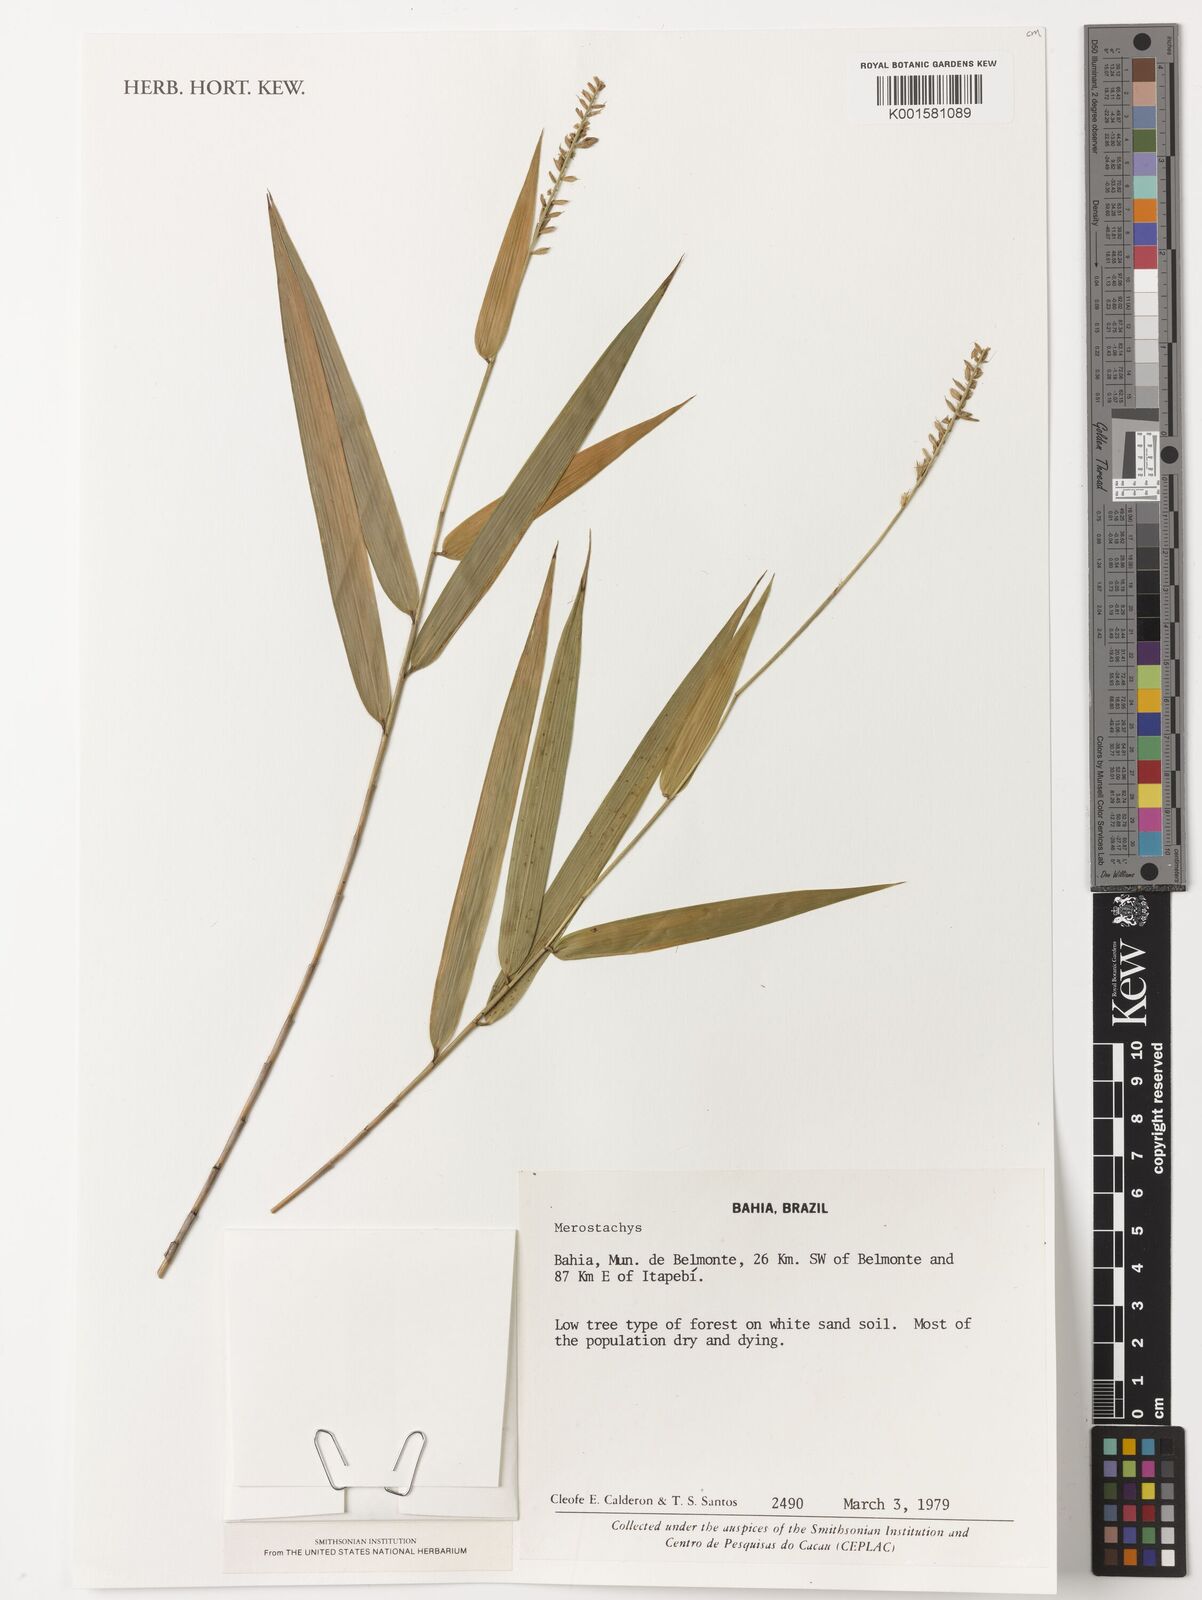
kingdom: Plantae
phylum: Tracheophyta
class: Liliopsida
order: Poales
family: Poaceae
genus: Merostachys
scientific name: Merostachys
